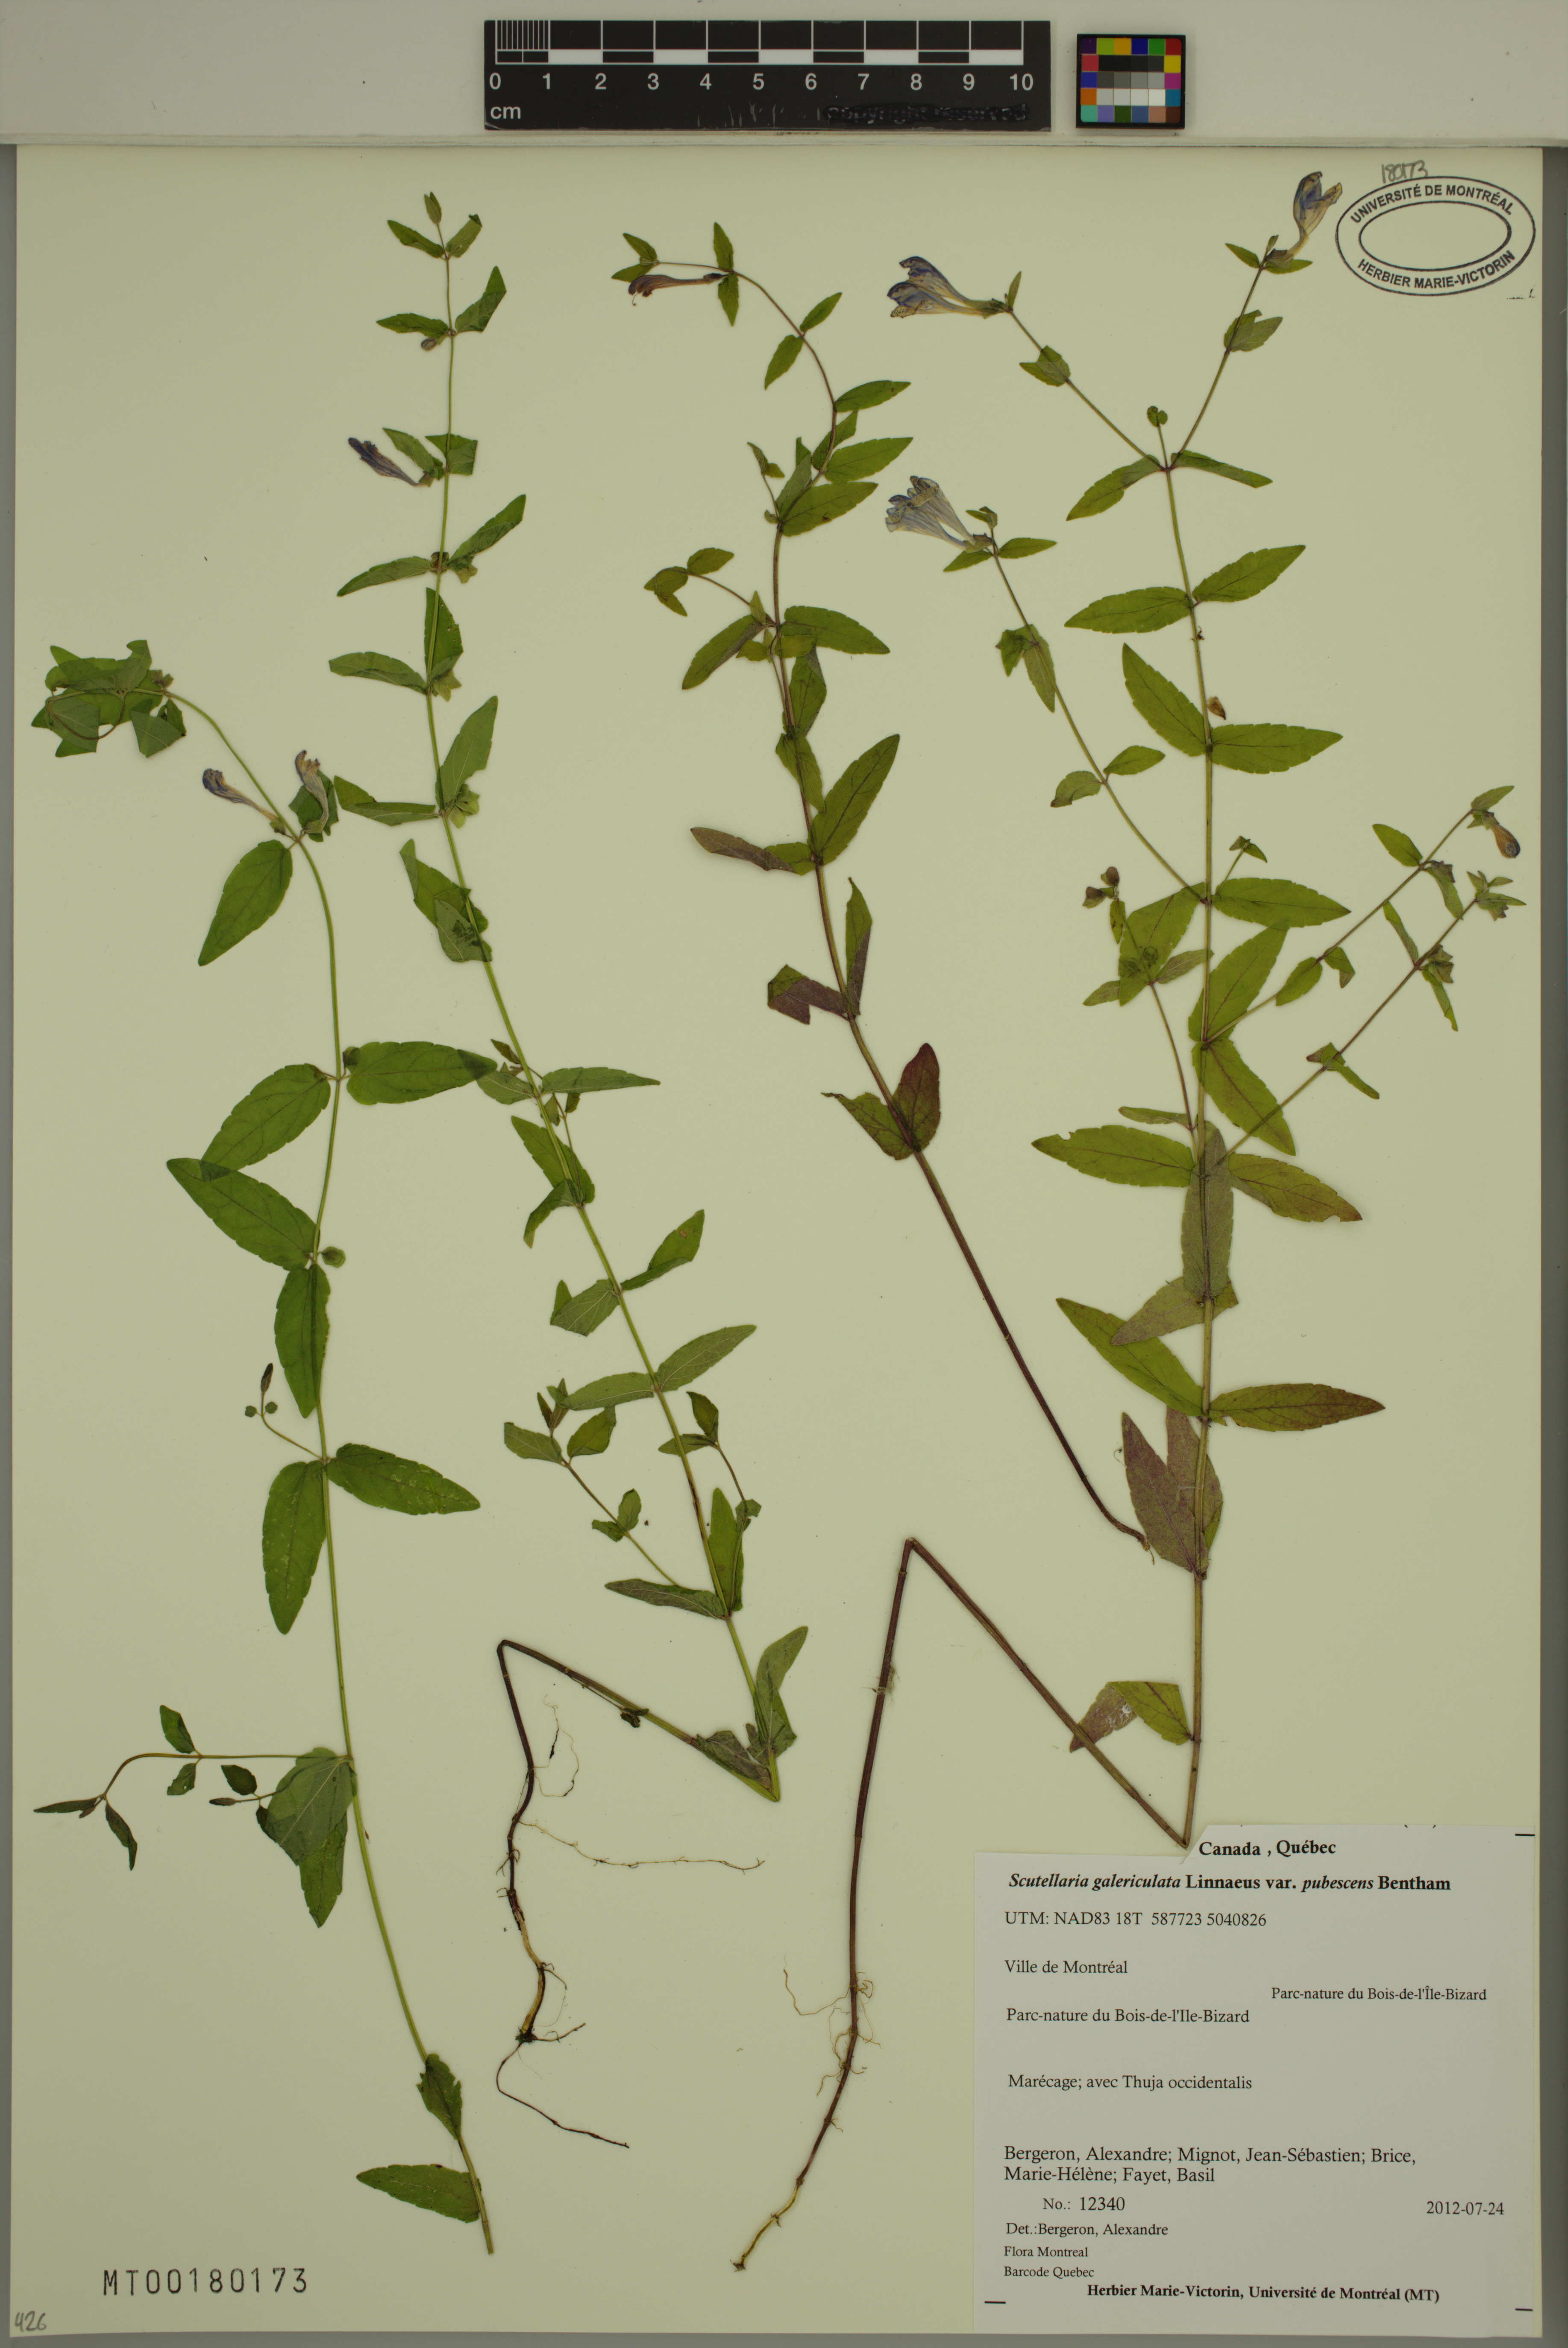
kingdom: Plantae
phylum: Tracheophyta
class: Magnoliopsida
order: Lamiales
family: Lamiaceae
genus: Scutellaria
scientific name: Scutellaria nicholsonii
